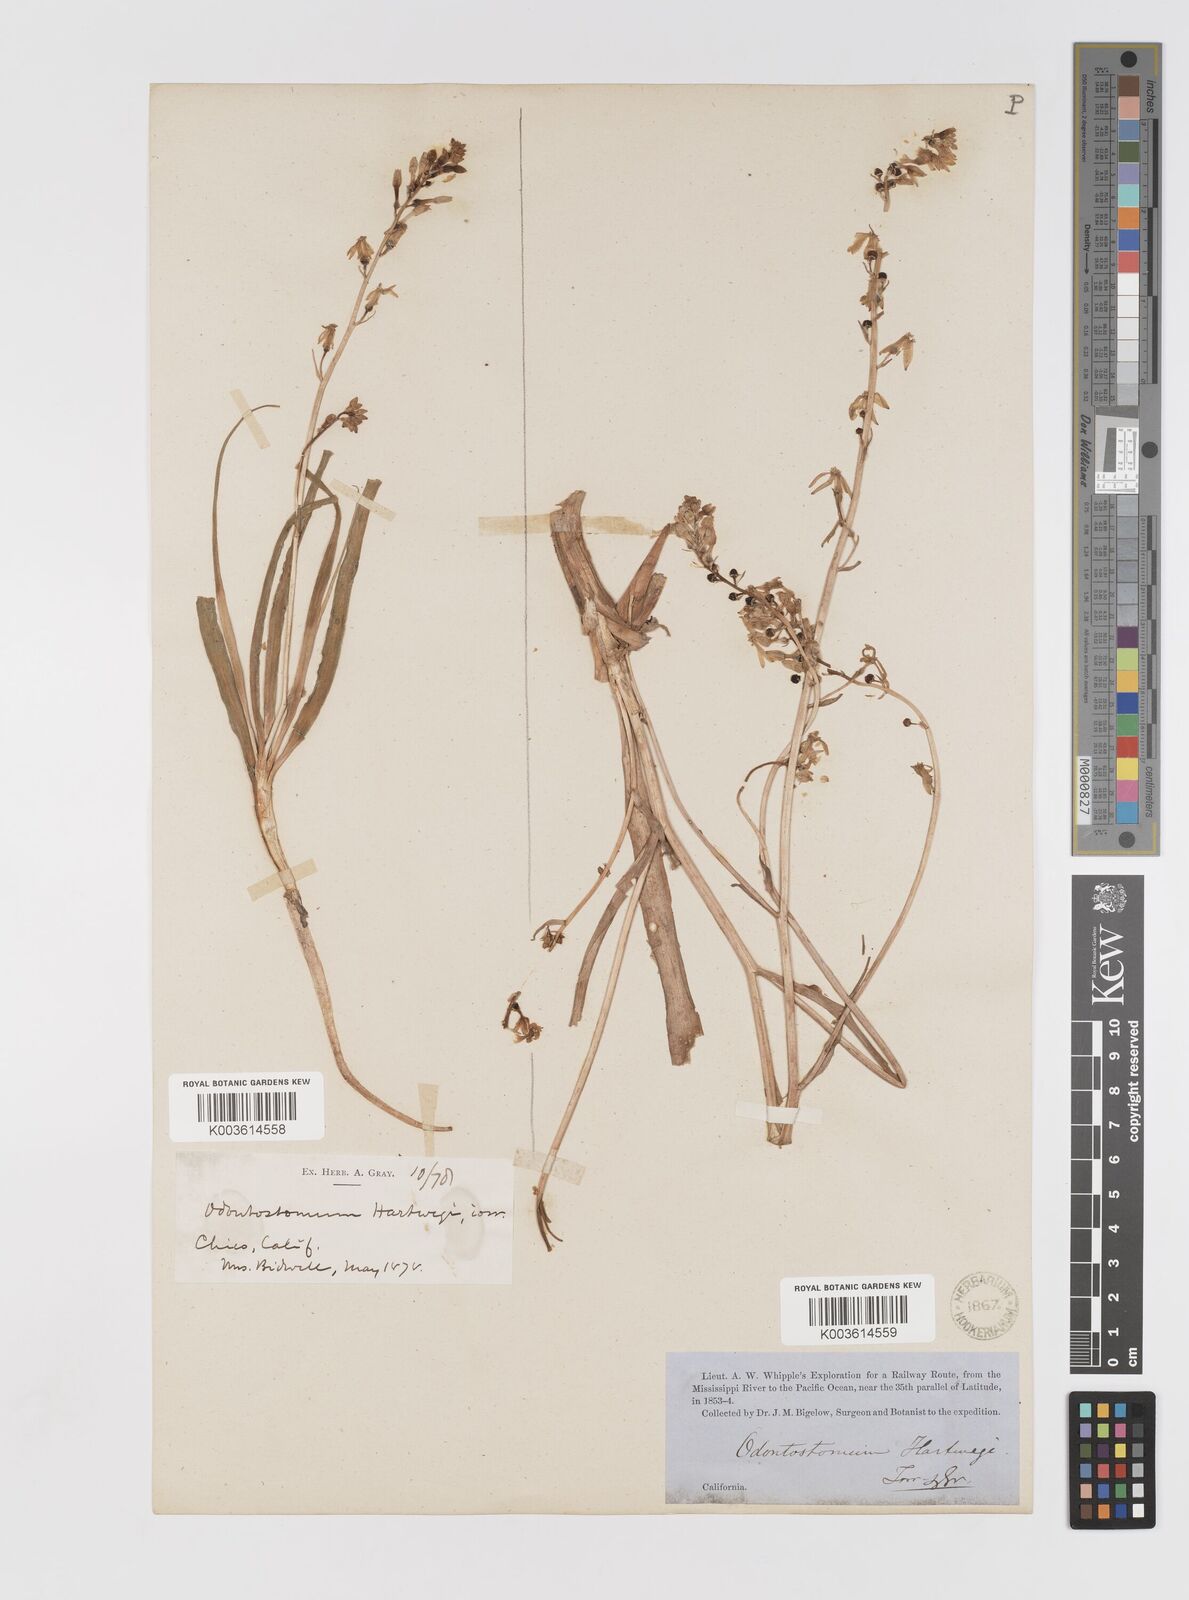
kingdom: Plantae
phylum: Tracheophyta
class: Liliopsida
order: Asparagales
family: Tecophilaeaceae
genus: Odontostomum
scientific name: Odontostomum hartwegii
